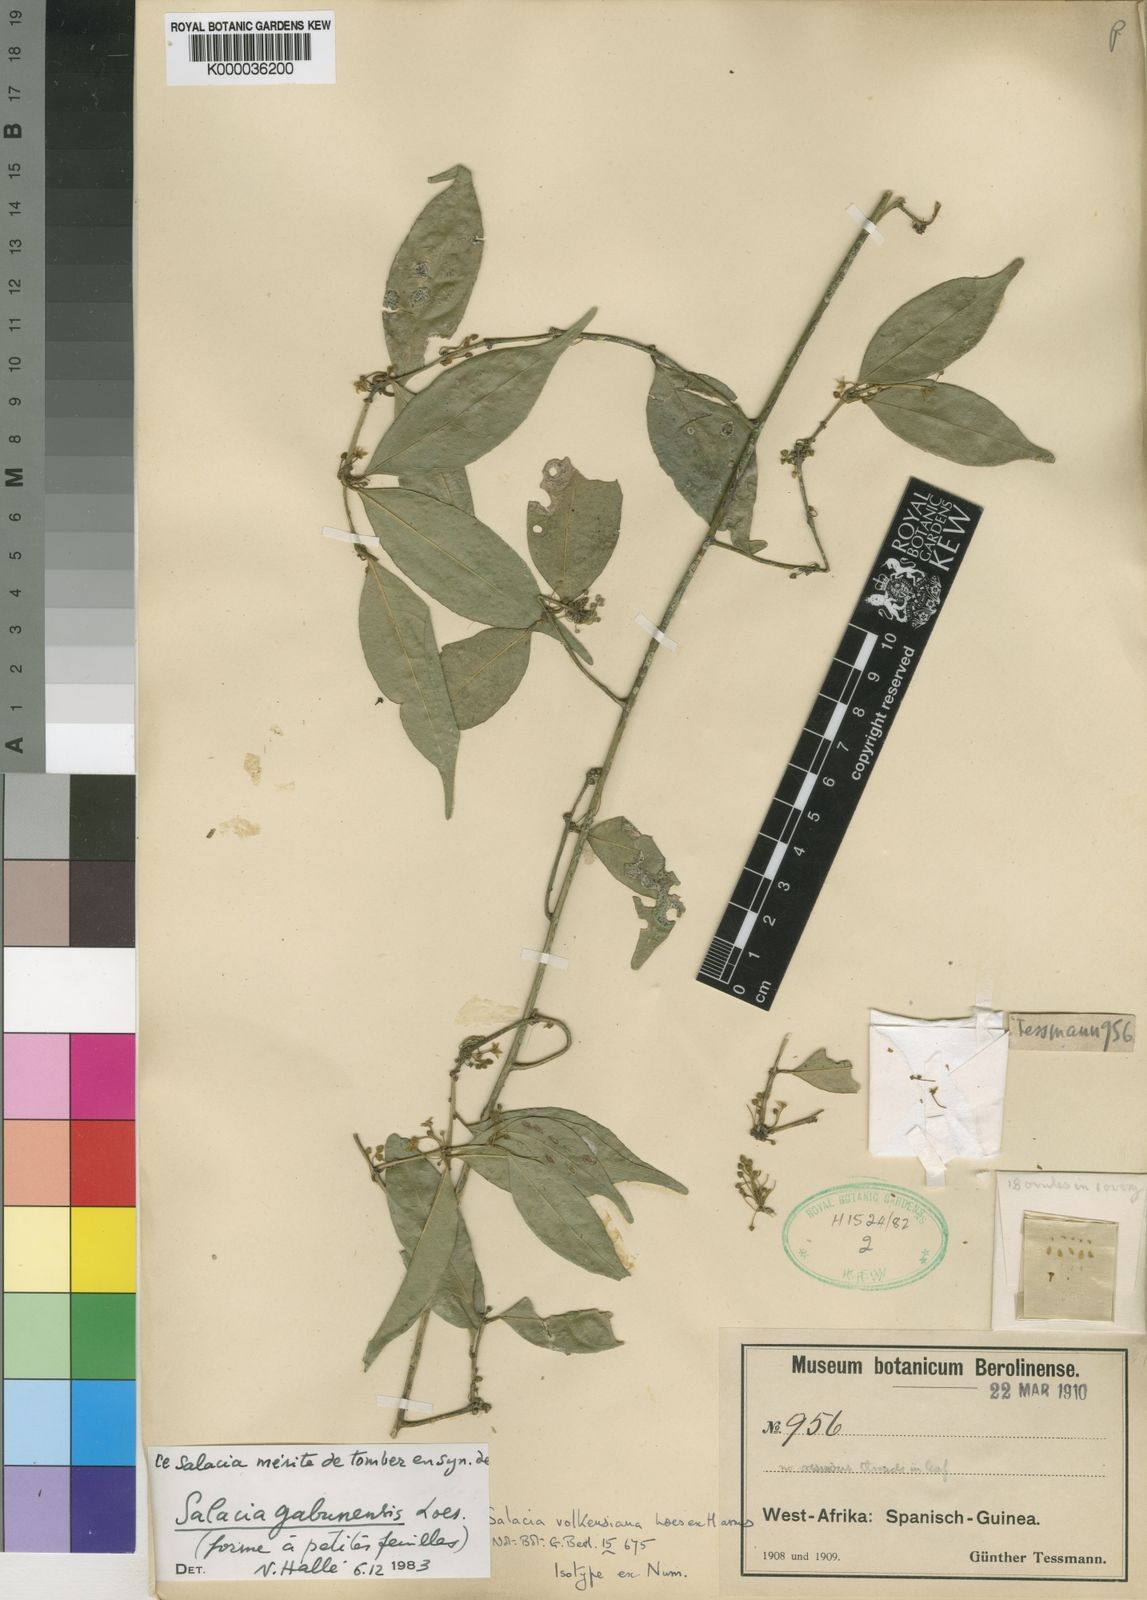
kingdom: Plantae
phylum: Tracheophyta
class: Magnoliopsida
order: Celastrales
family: Celastraceae
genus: Salacia
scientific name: Salacia gabunensis
